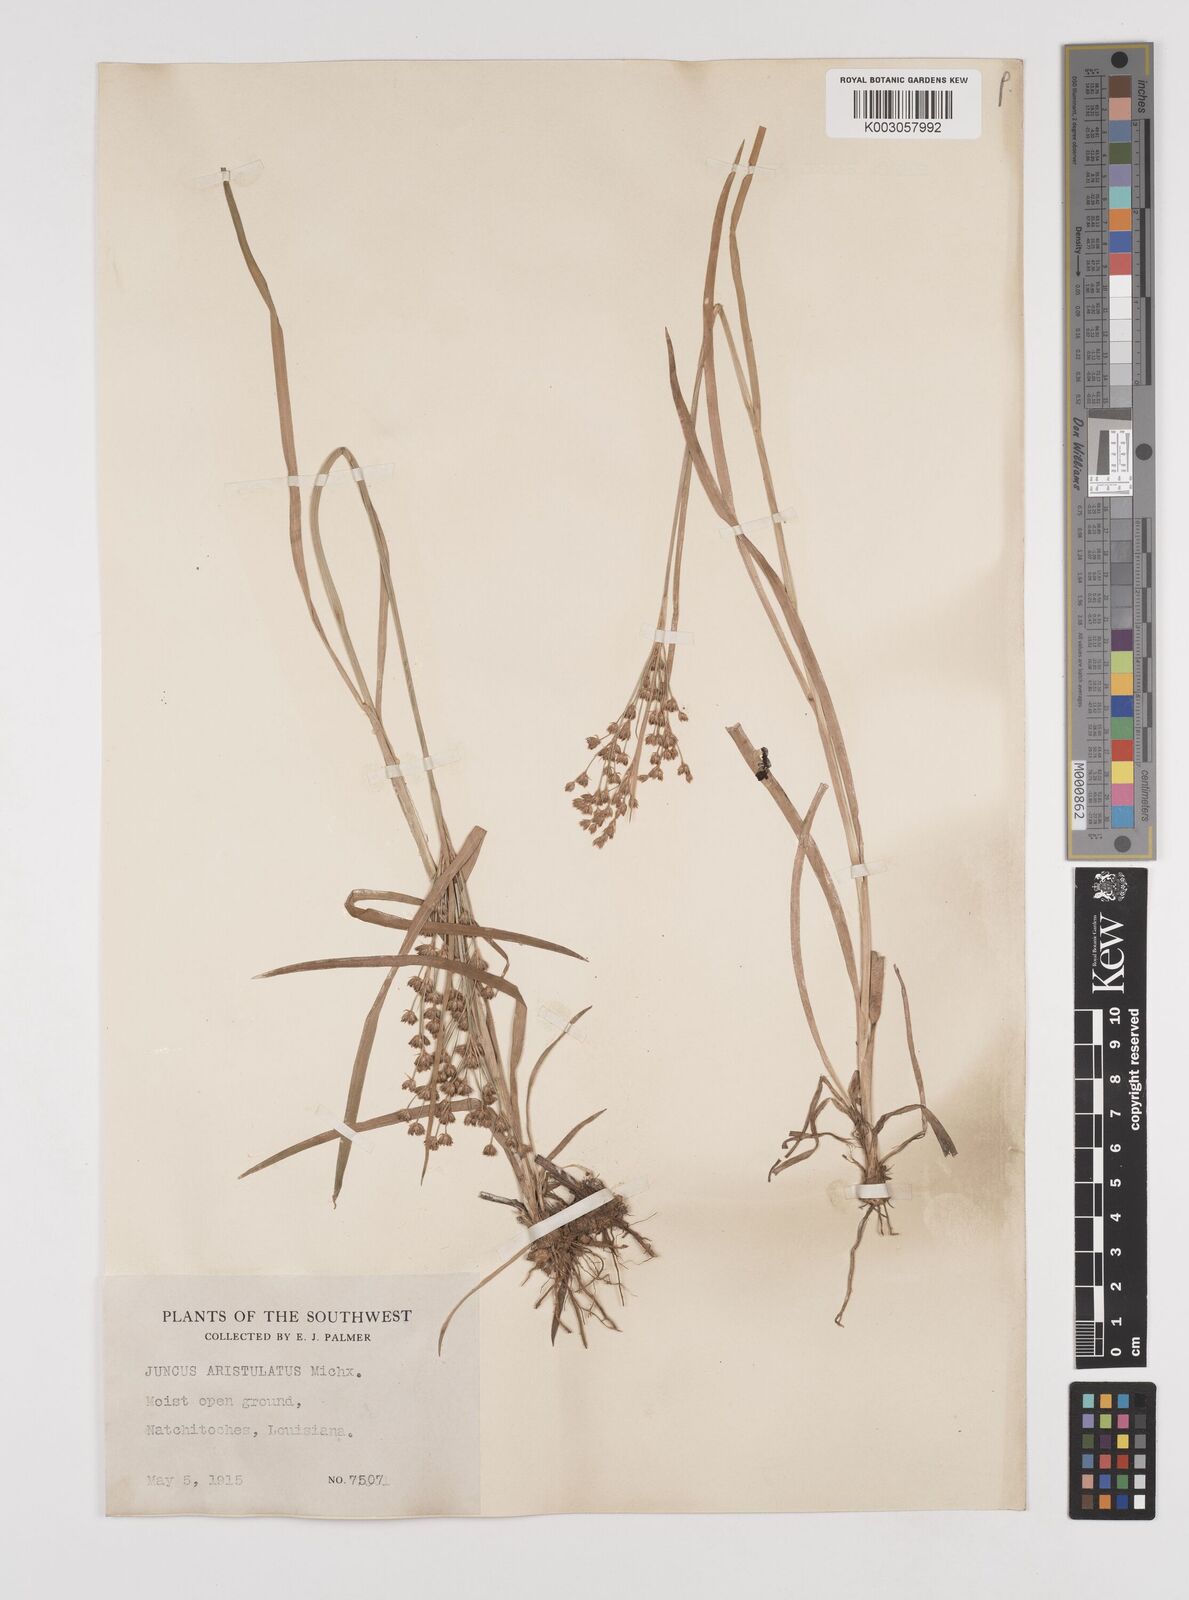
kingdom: Plantae
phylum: Tracheophyta
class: Liliopsida
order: Poales
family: Juncaceae
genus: Juncus
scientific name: Juncus marginatus
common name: Grass-leaf rush
